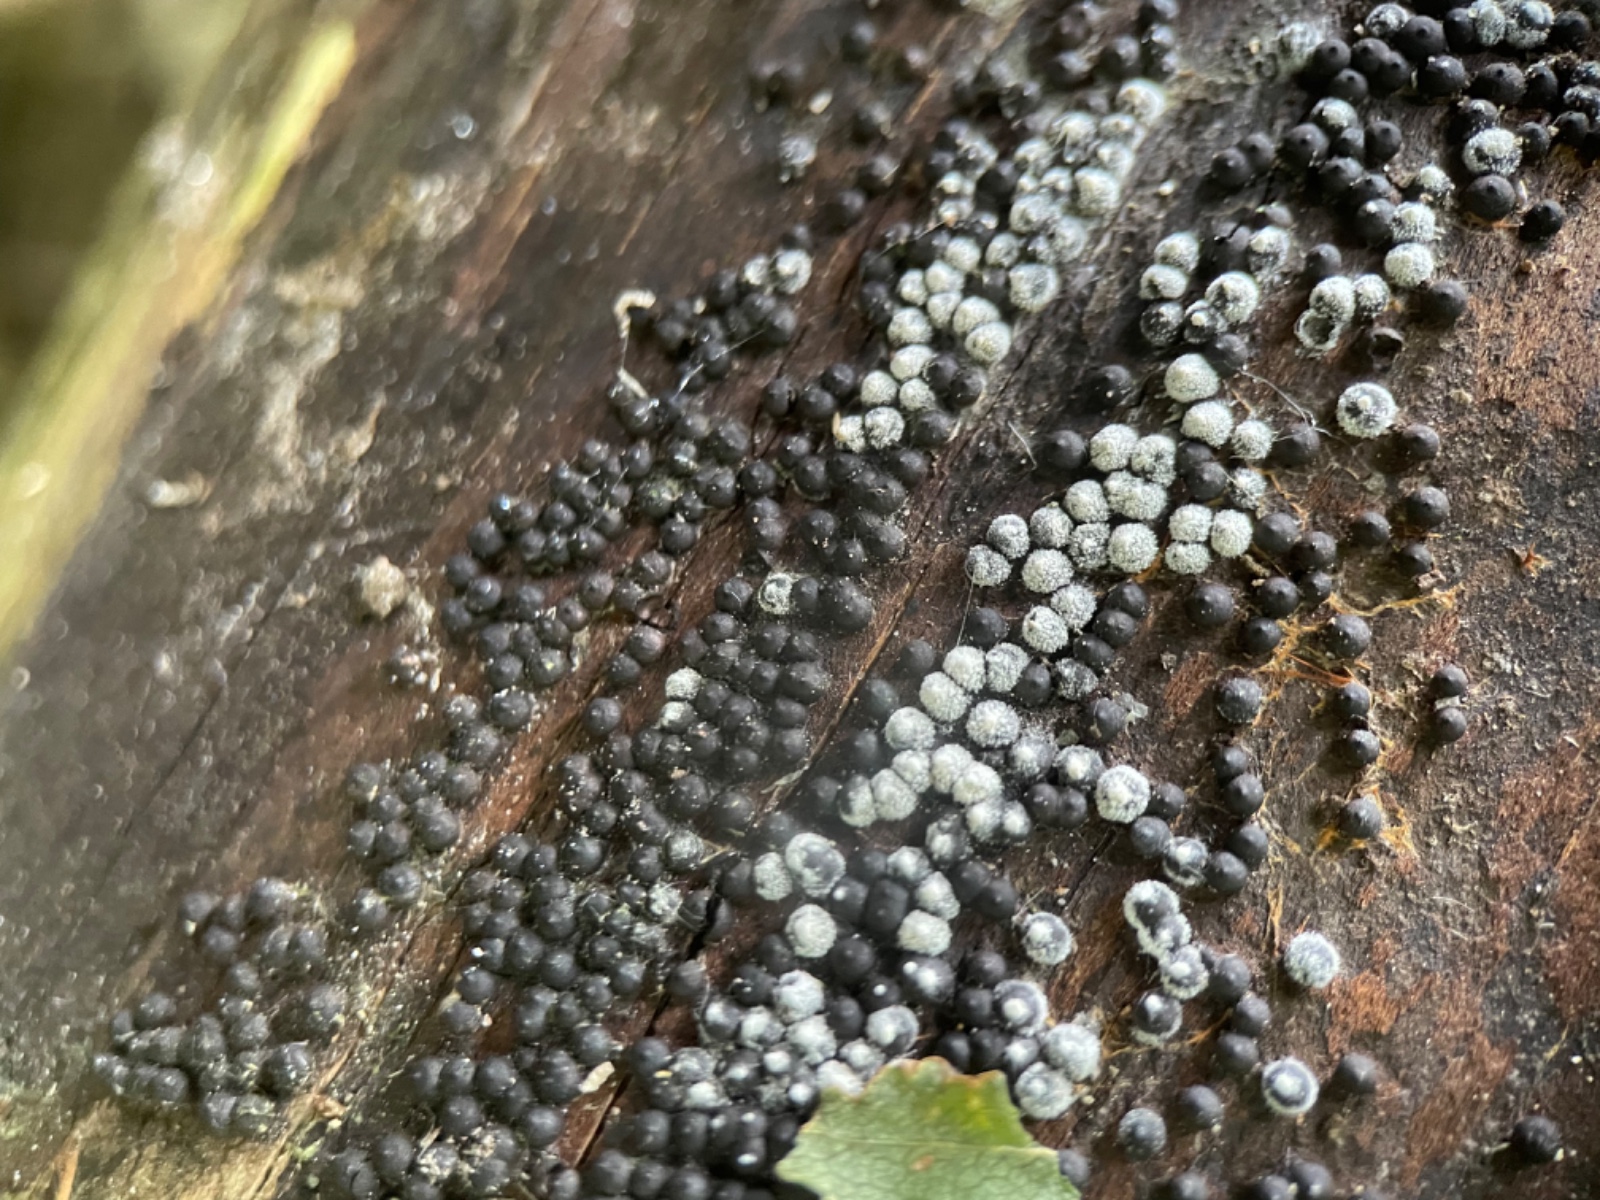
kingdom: Fungi
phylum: Ascomycota
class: Sordariomycetes
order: Xylariales
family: Xylariaceae
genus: Rosellinia
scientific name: Rosellinia
